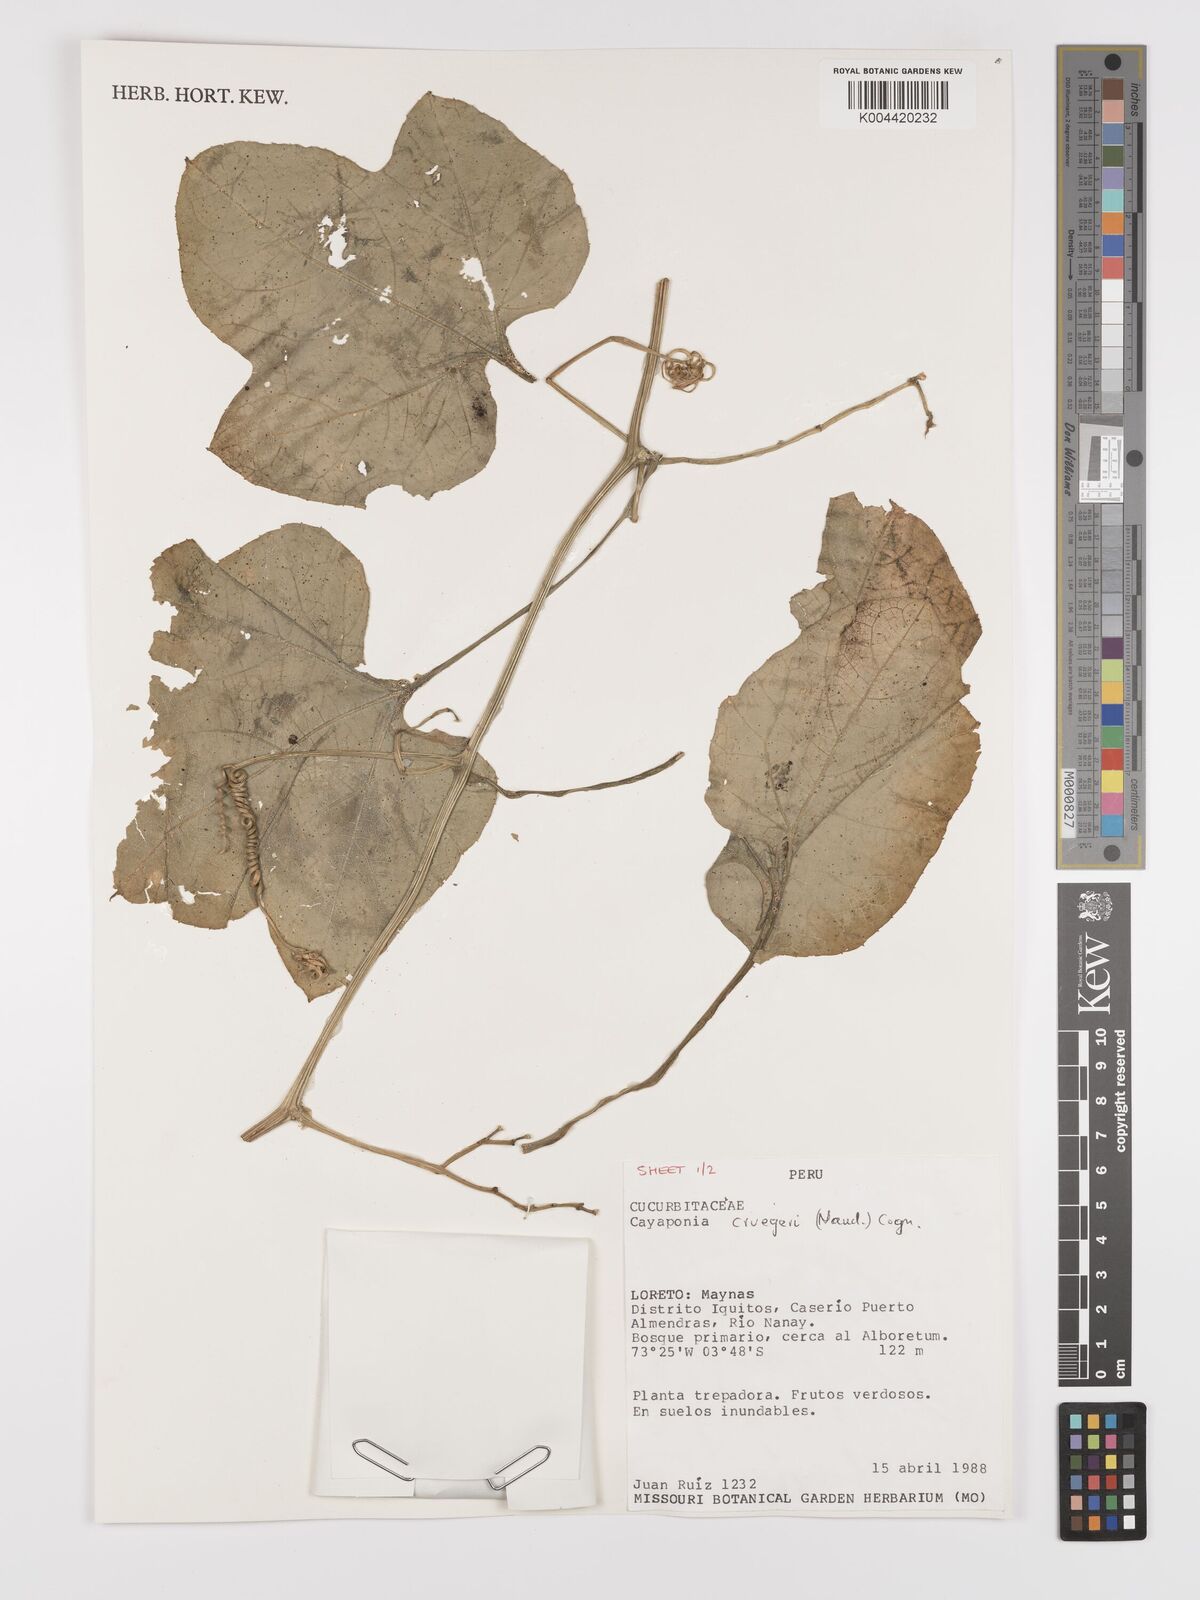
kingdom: Plantae
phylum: Tracheophyta
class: Magnoliopsida
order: Cucurbitales
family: Cucurbitaceae
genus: Cayaponia
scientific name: Cayaponia cruegeri
